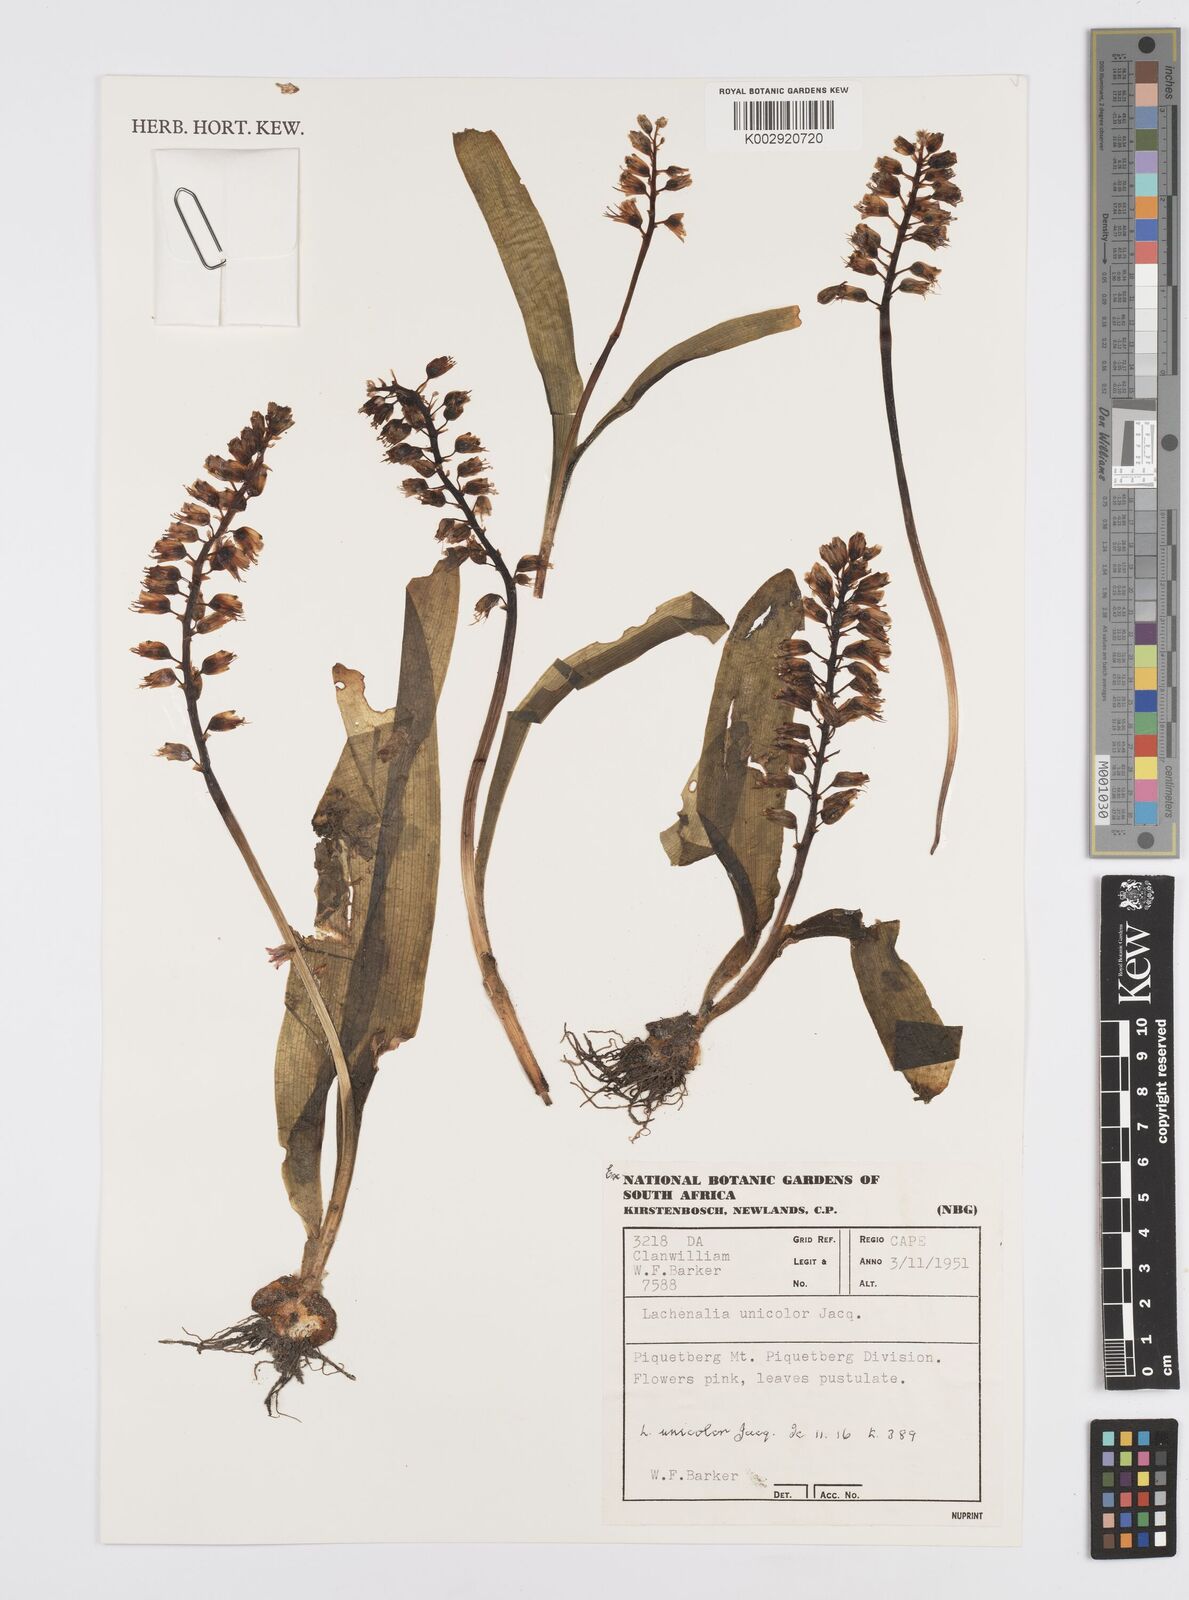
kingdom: Plantae
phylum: Tracheophyta
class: Liliopsida
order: Asparagales
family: Asparagaceae
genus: Lachenalia
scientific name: Lachenalia pallida
